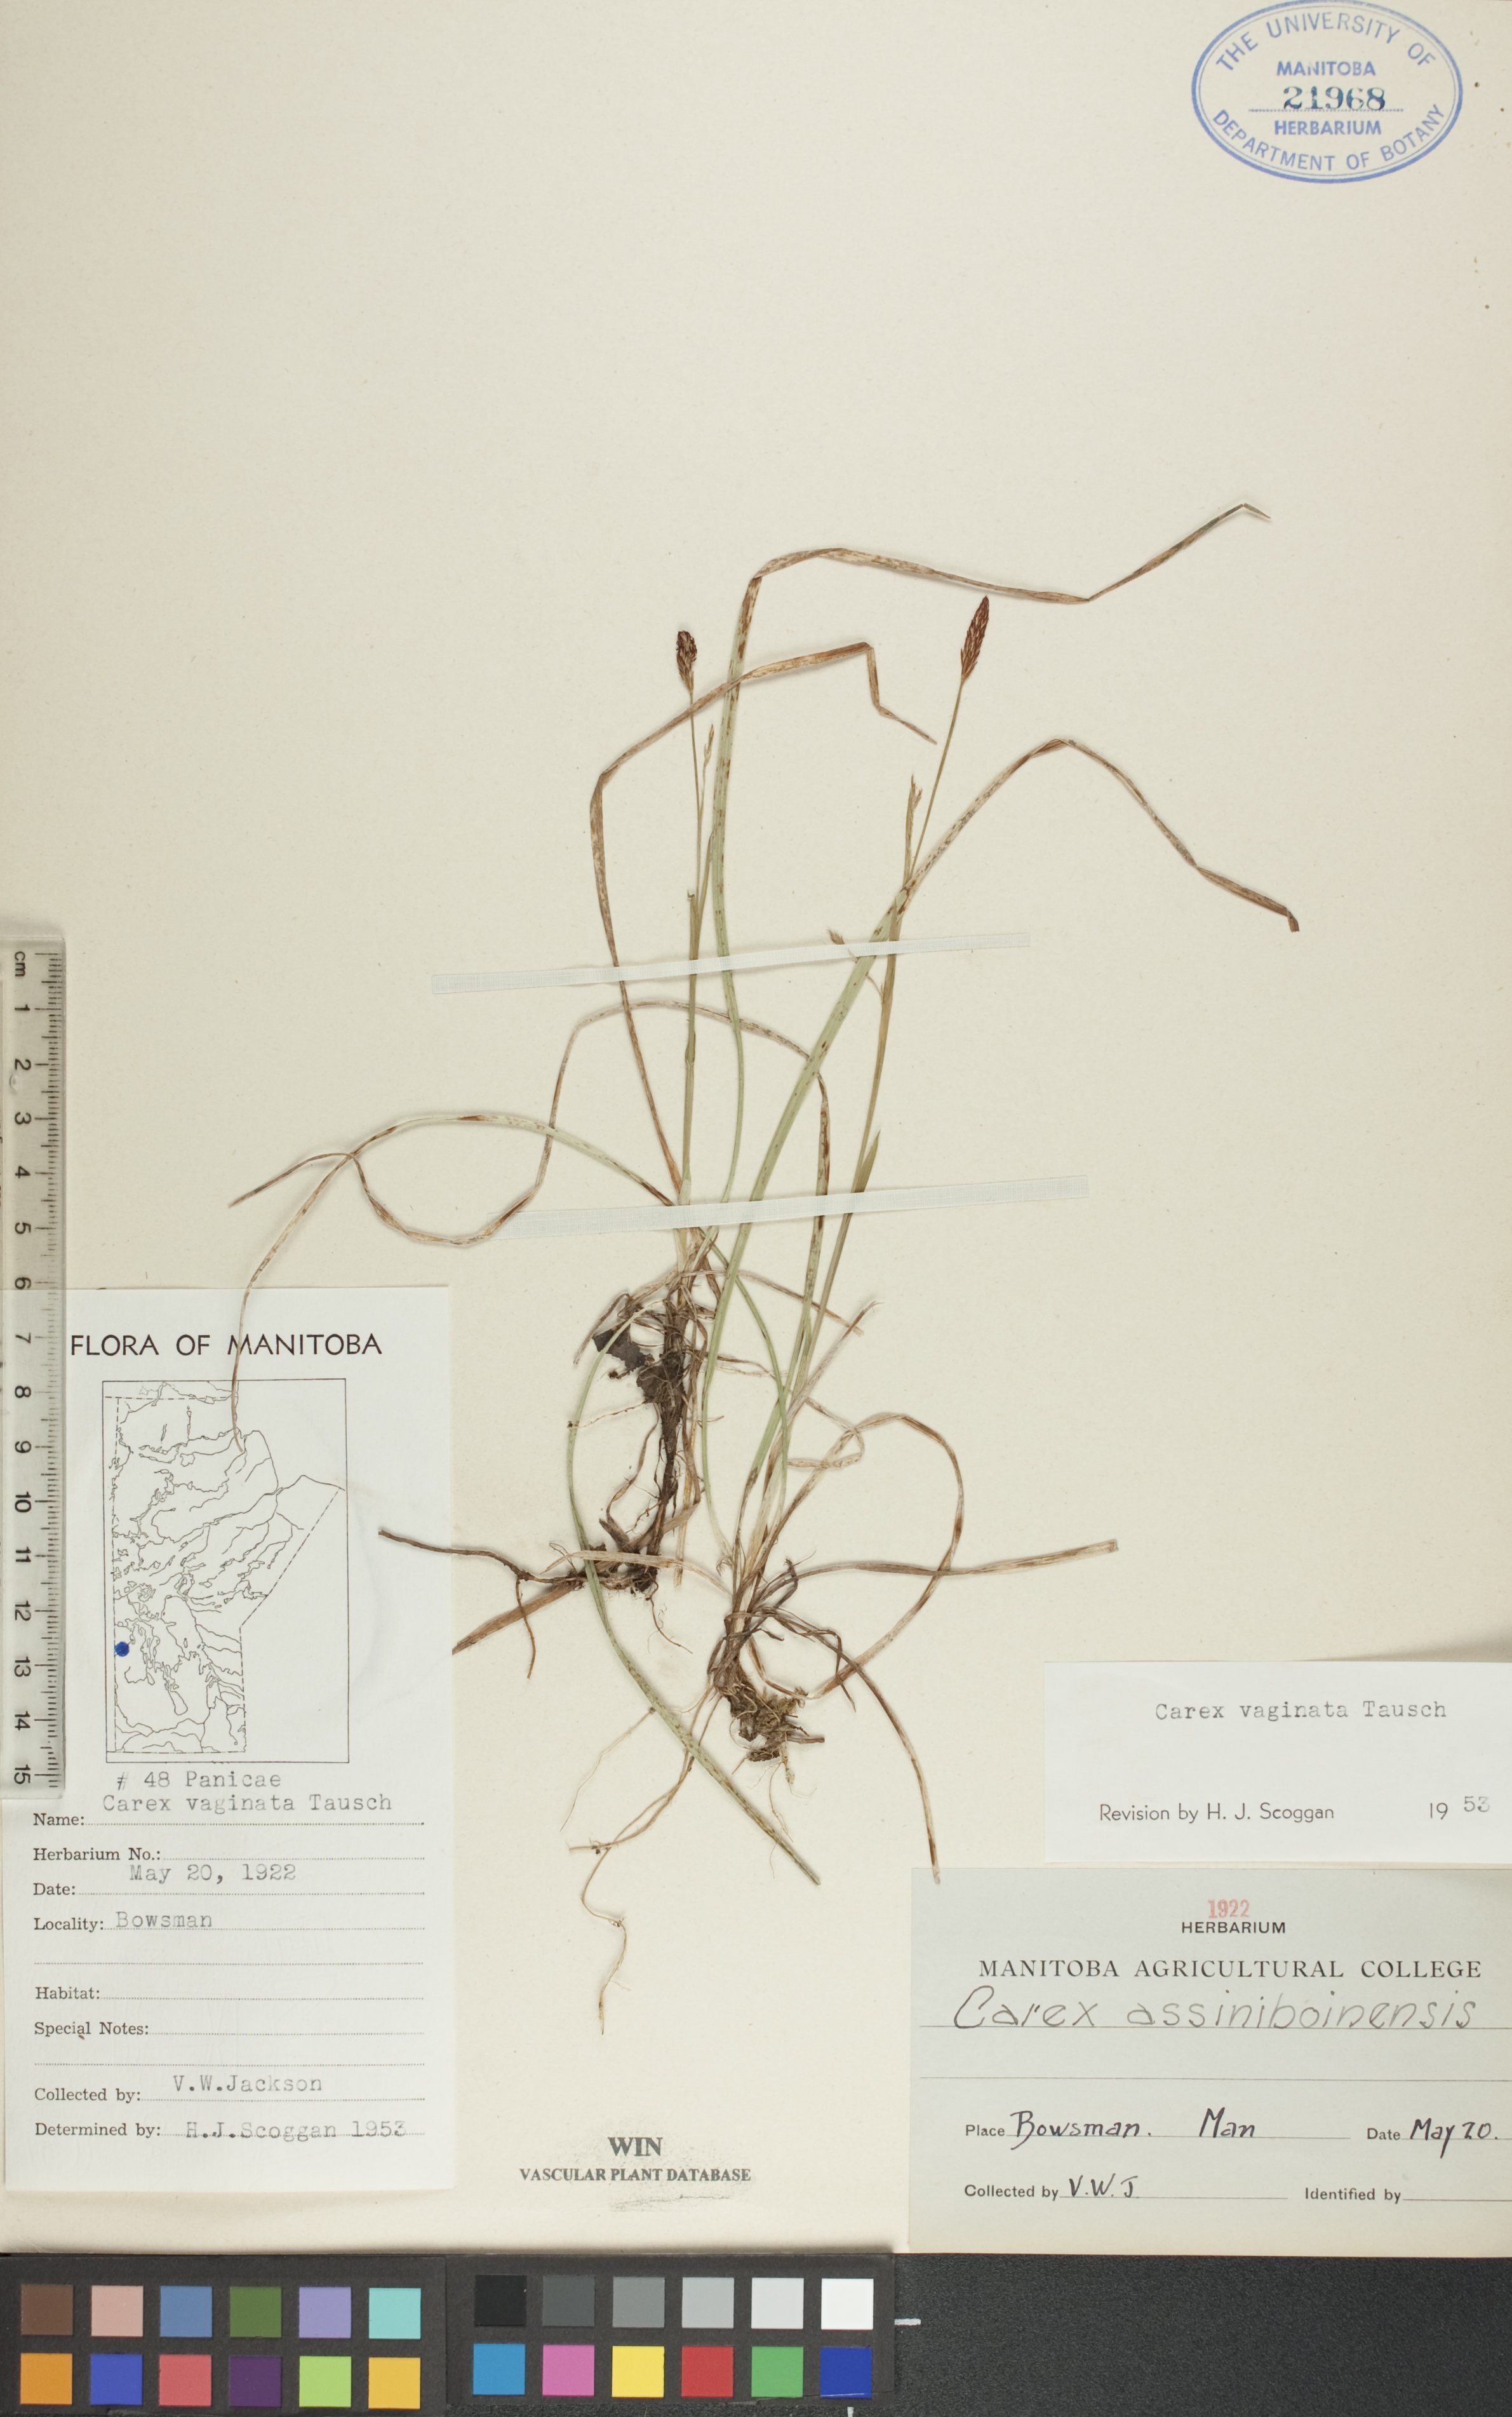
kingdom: Plantae
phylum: Tracheophyta
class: Liliopsida
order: Poales
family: Cyperaceae
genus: Carex
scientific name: Carex vaginata
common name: Sheathed sedge
